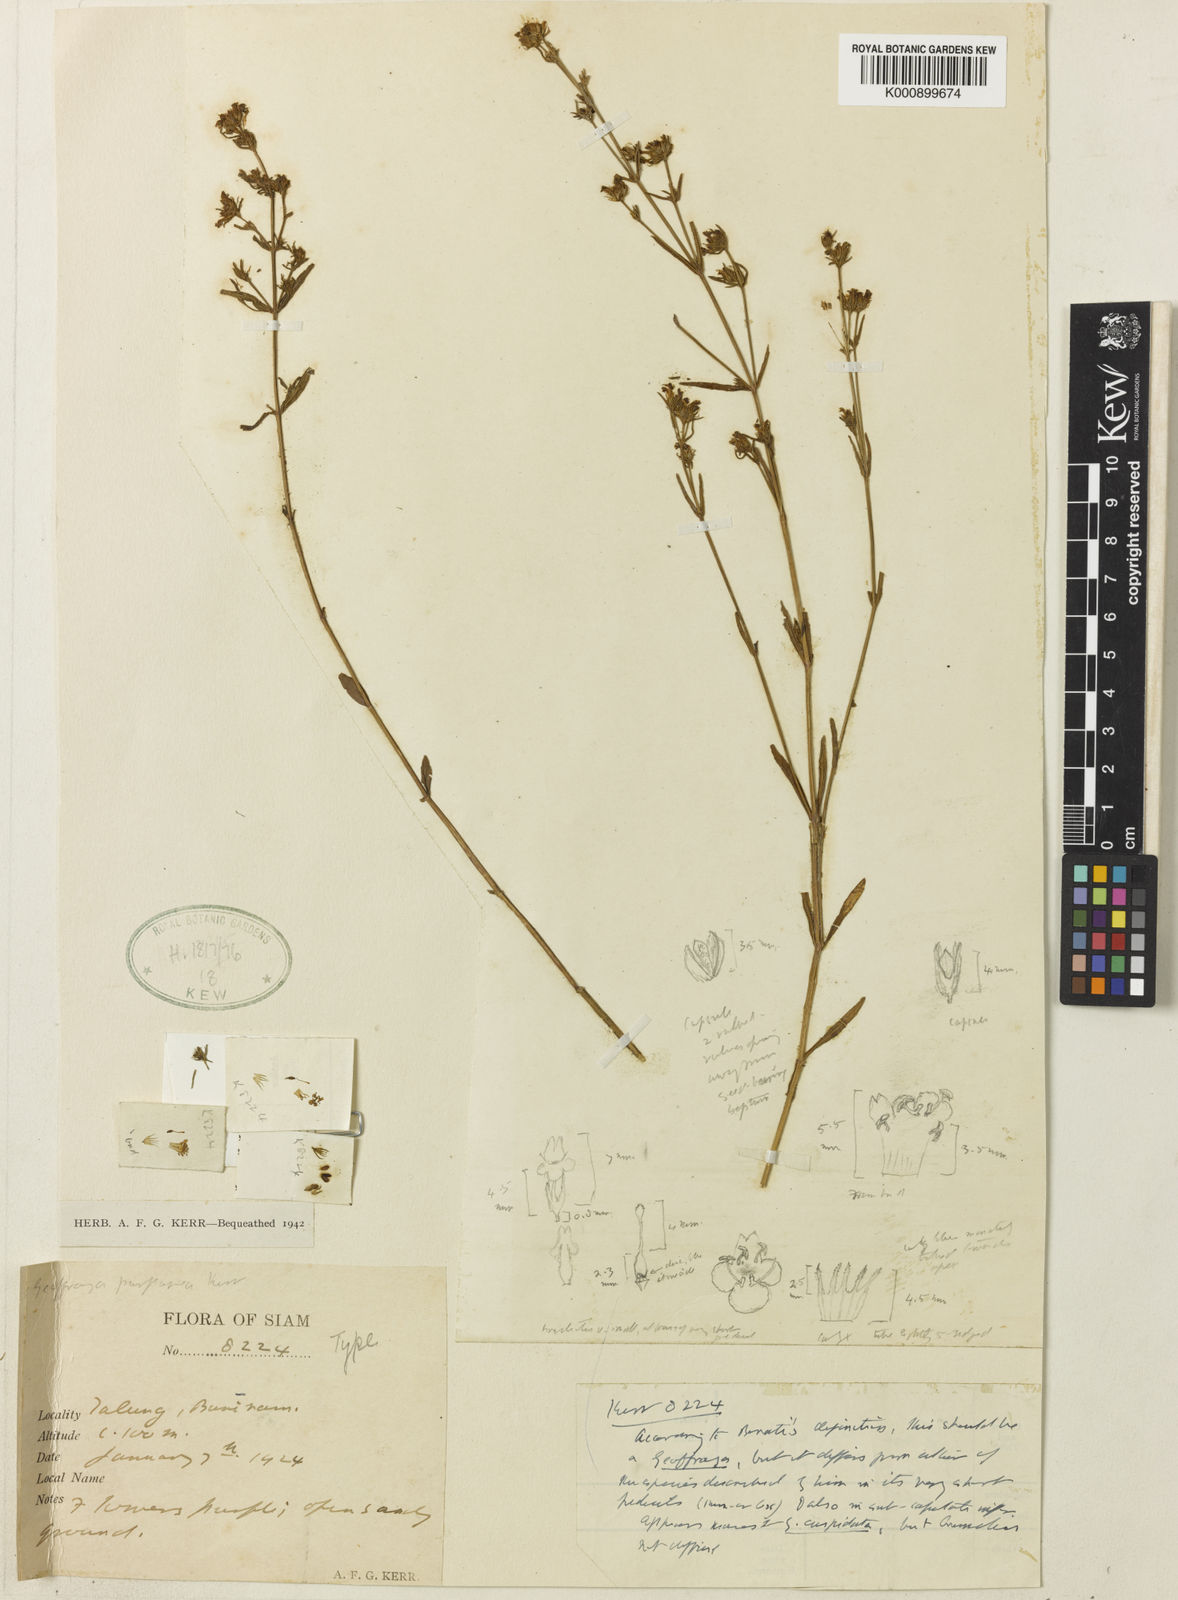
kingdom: Plantae
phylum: Tracheophyta
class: Magnoliopsida
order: Lamiales
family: Linderniaceae
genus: Vandellia
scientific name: Vandellia purpurea
